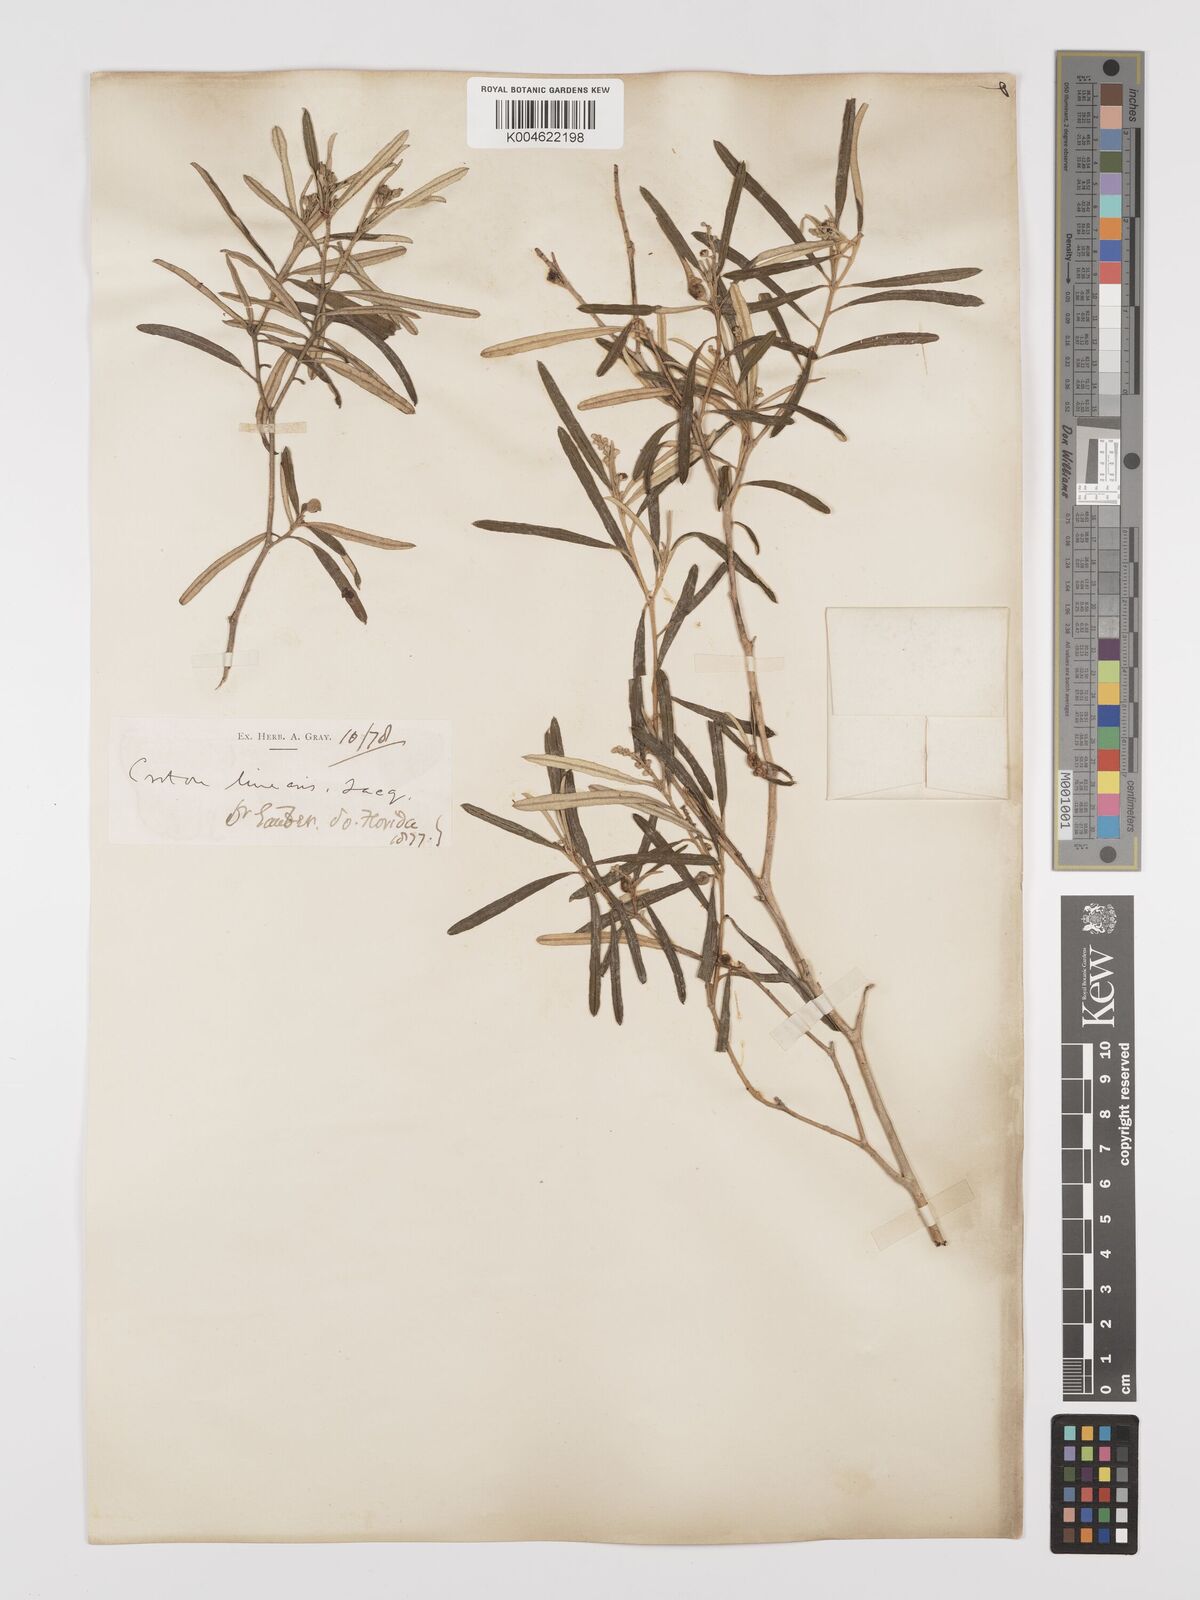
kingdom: Plantae
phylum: Tracheophyta
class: Magnoliopsida
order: Malpighiales
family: Euphorbiaceae
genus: Croton
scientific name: Croton linearis
